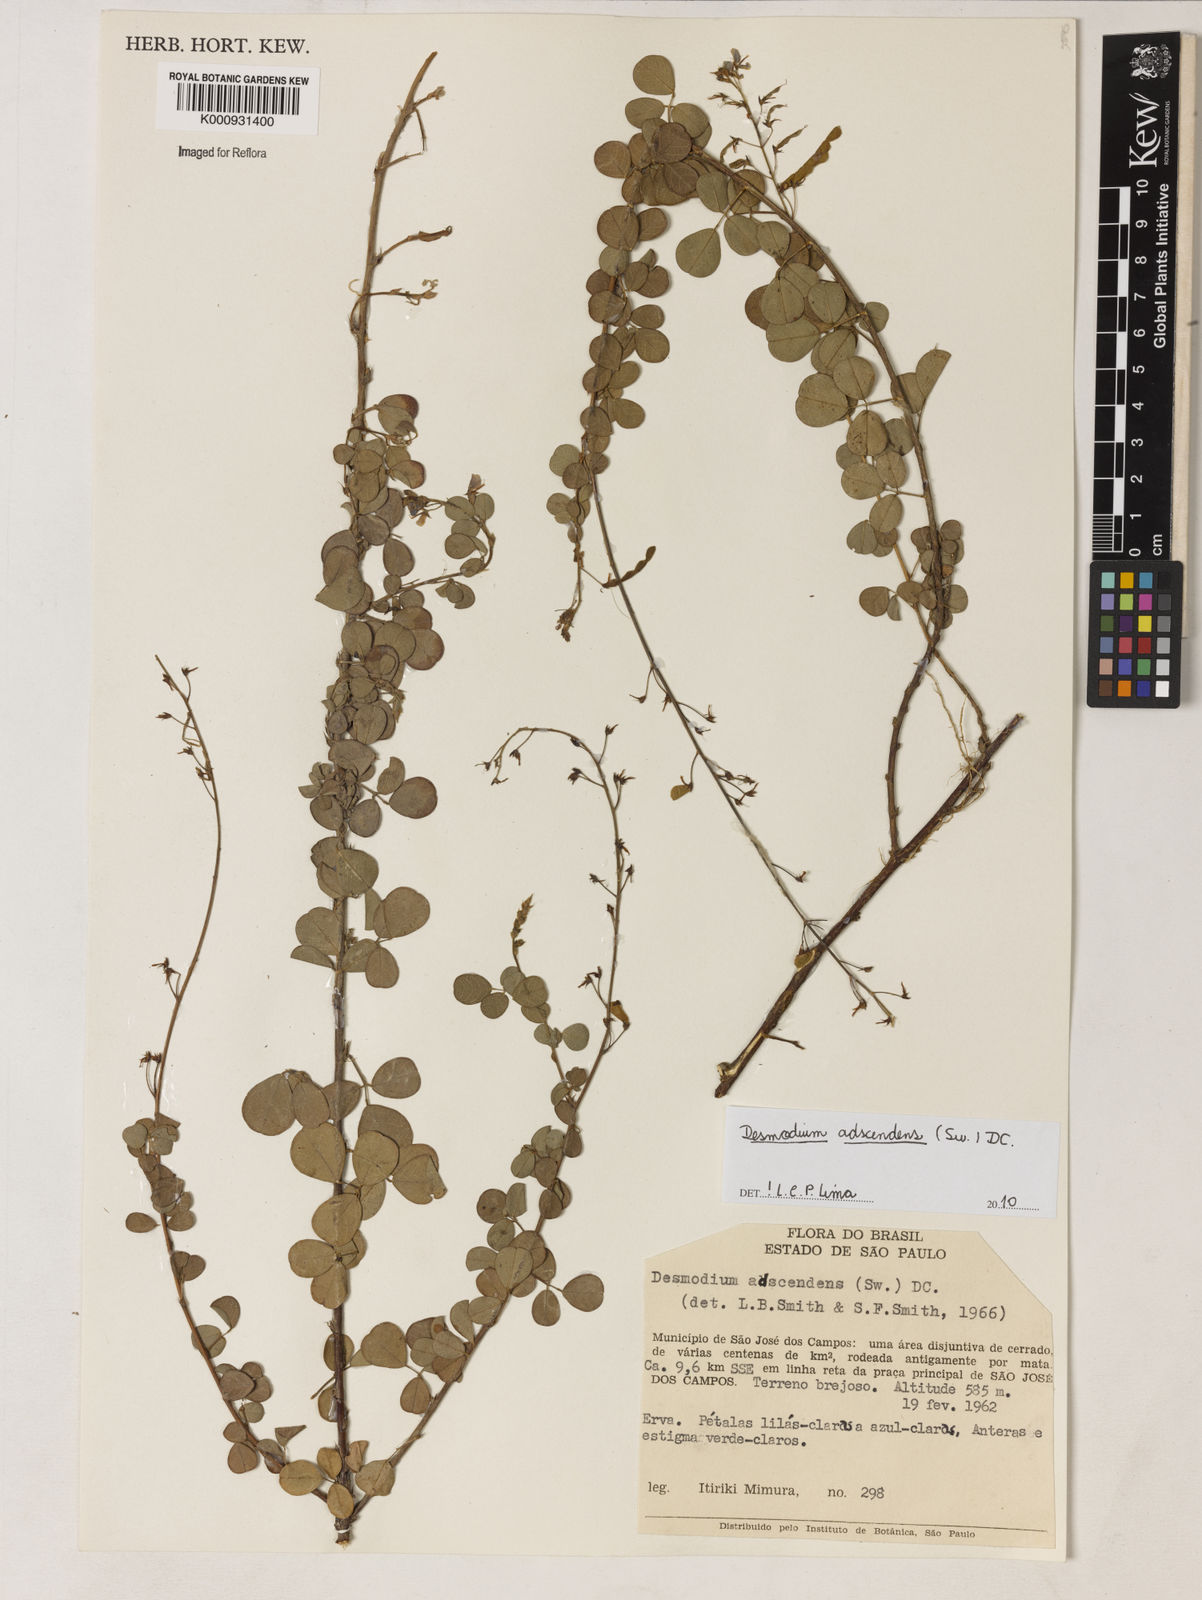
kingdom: Plantae
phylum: Tracheophyta
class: Magnoliopsida
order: Fabales
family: Fabaceae
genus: Grona
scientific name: Grona adscendens
